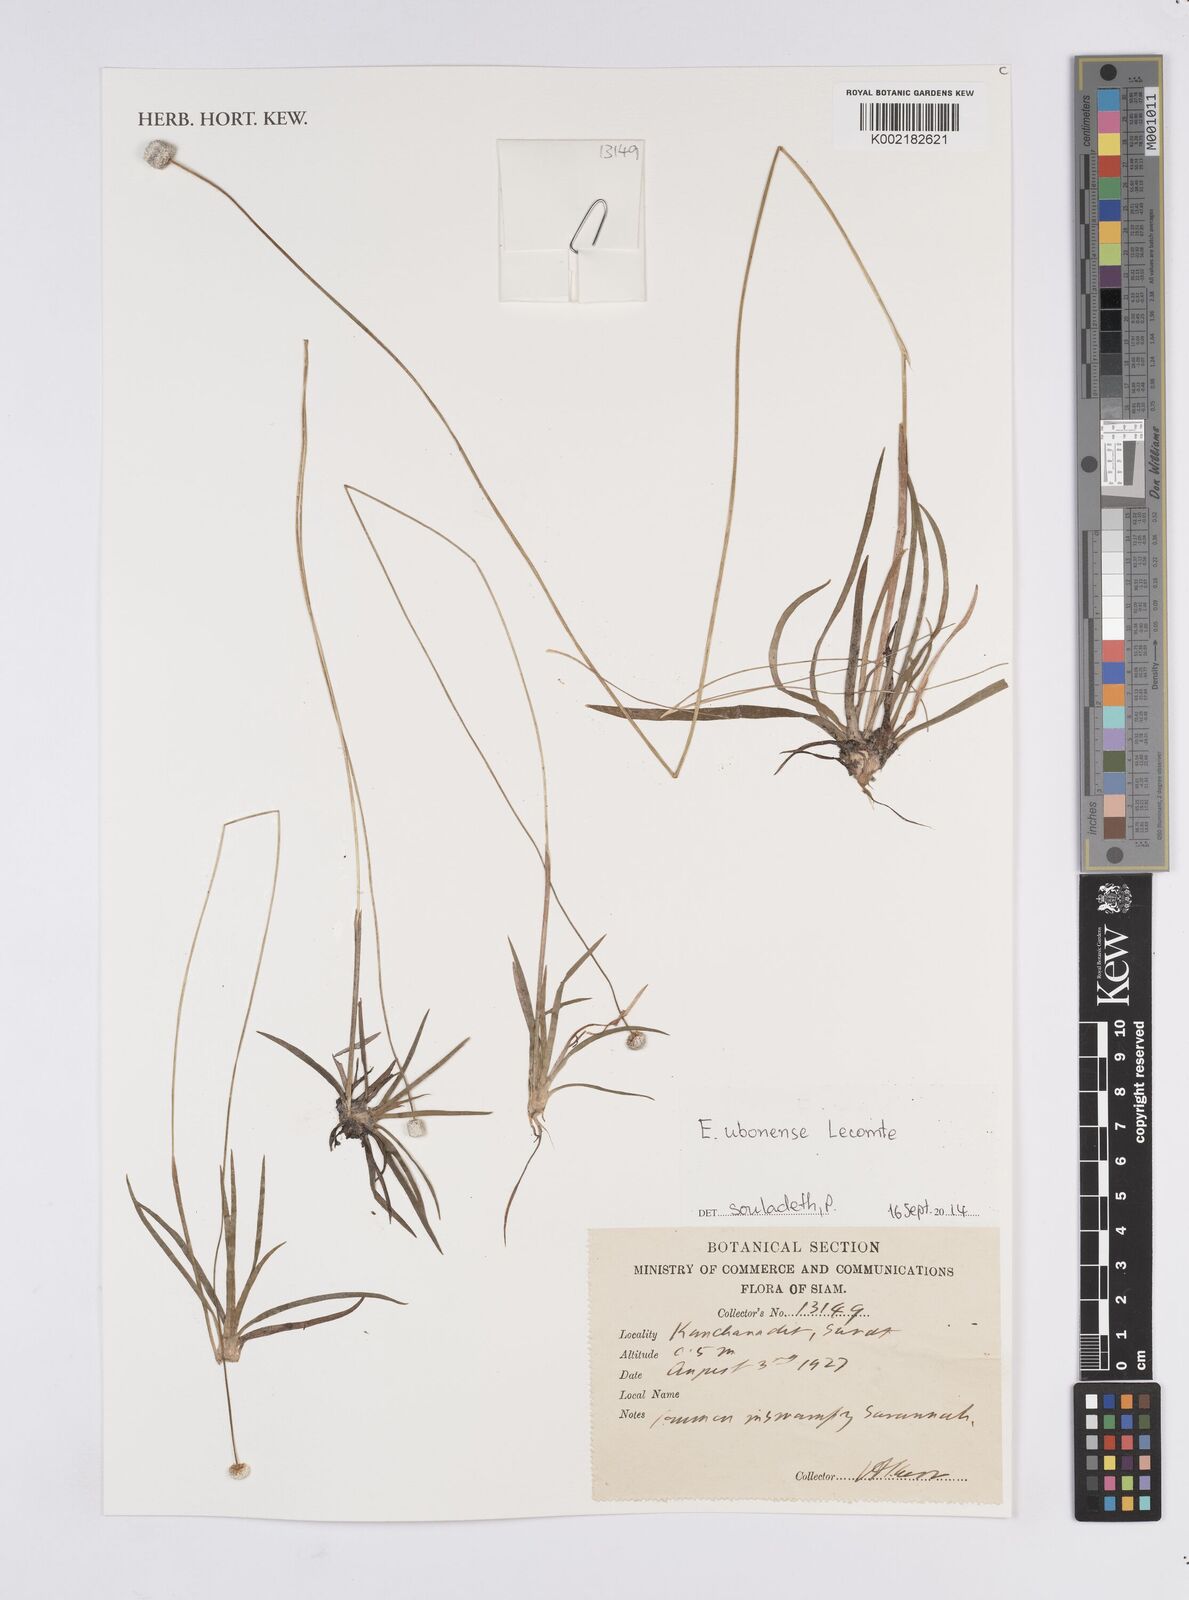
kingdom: Plantae
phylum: Tracheophyta
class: Liliopsida
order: Poales
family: Eriocaulaceae
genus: Eriocaulon
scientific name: Eriocaulon ubonense
